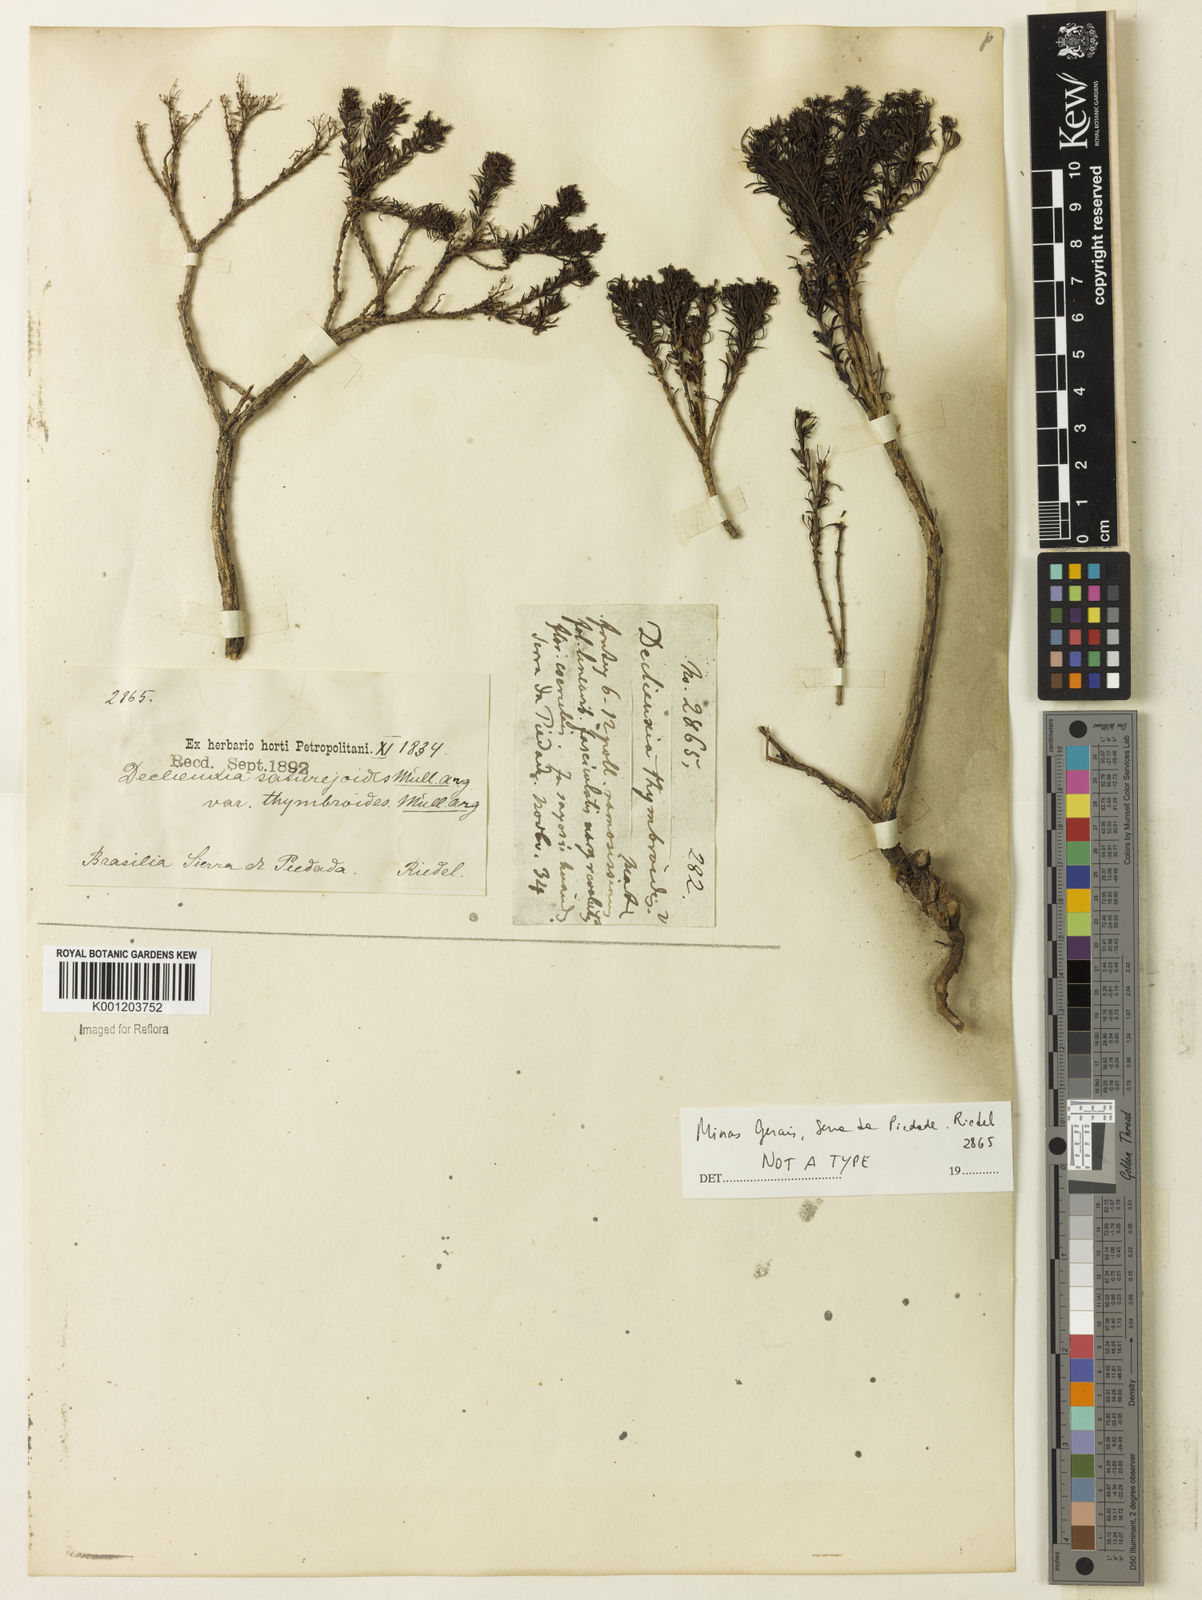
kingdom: Plantae
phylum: Tracheophyta
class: Magnoliopsida
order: Gentianales
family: Rubiaceae
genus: Declieuxia
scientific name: Declieuxia
